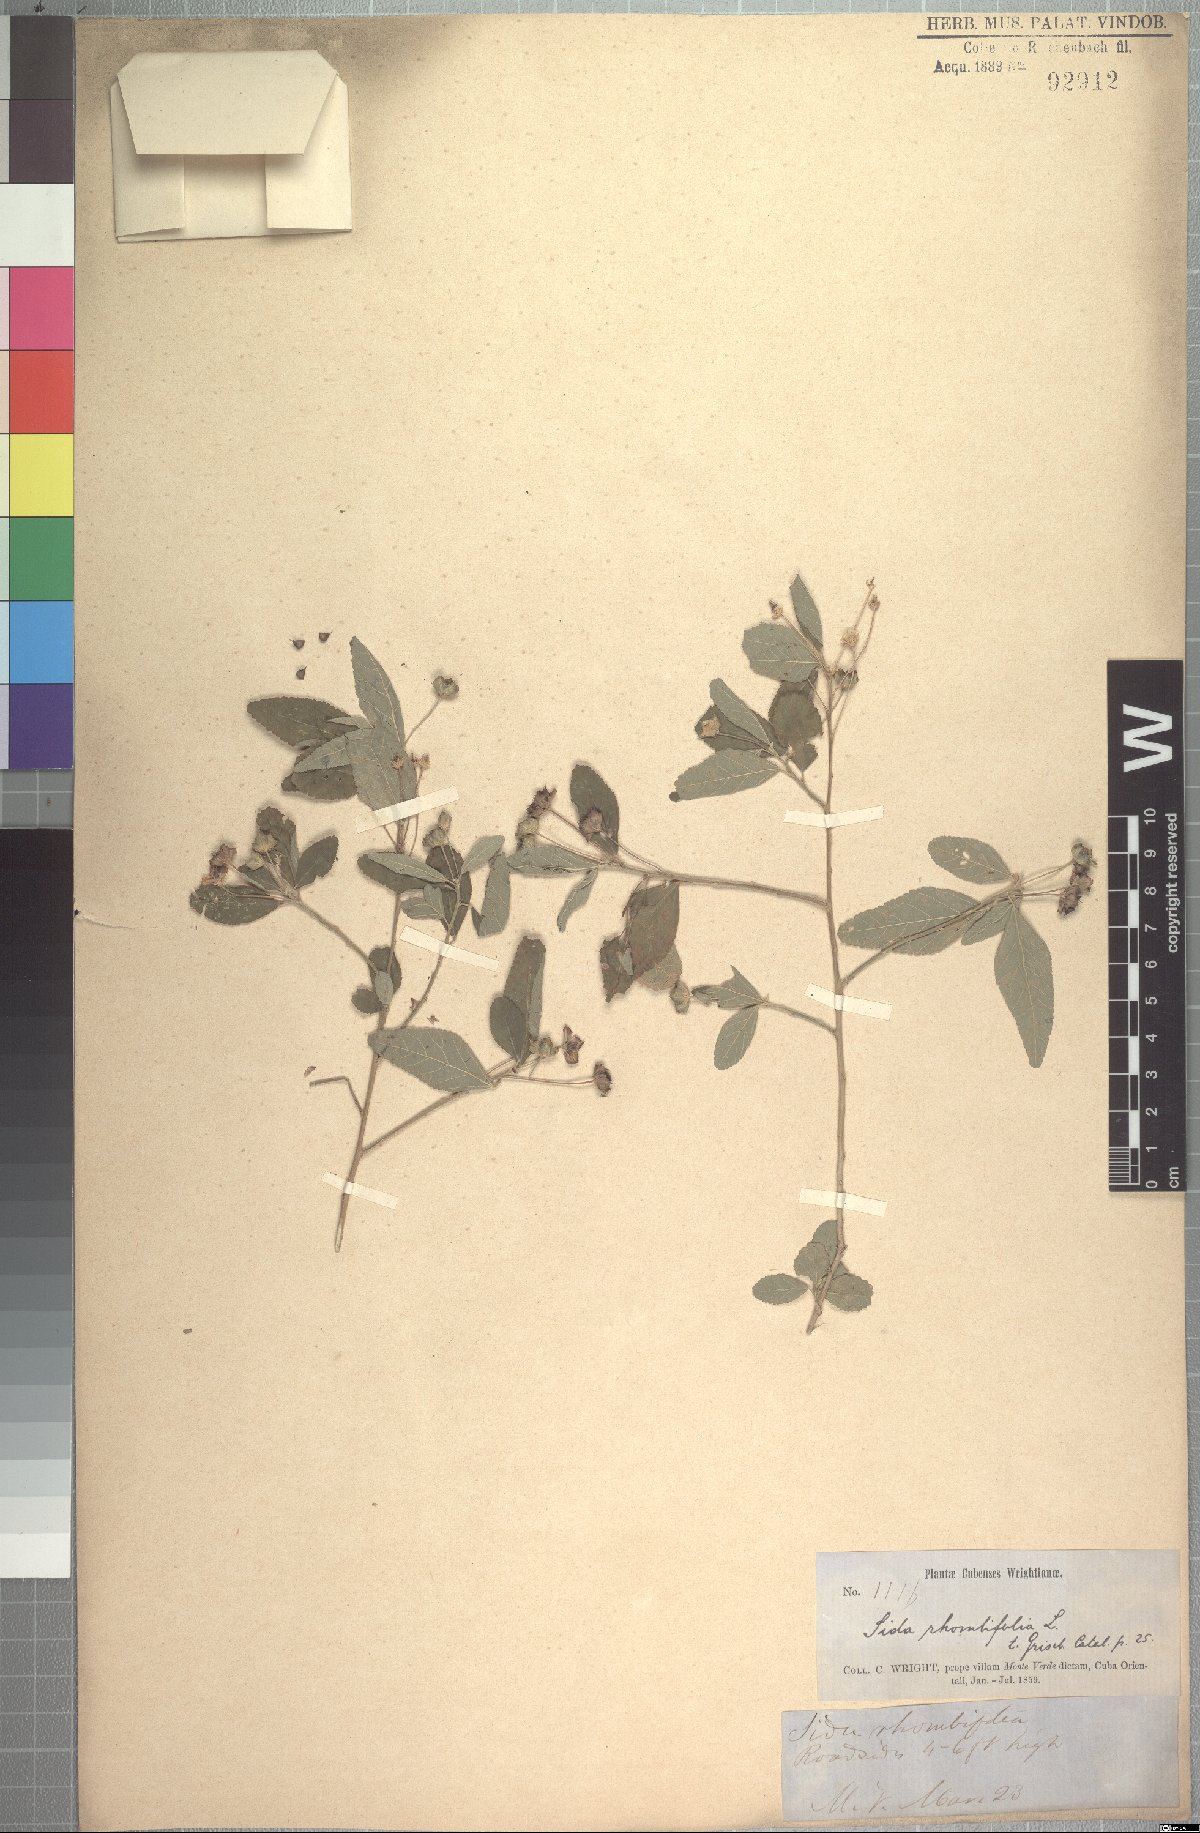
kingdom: Plantae
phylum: Tracheophyta
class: Magnoliopsida
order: Malvales
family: Malvaceae
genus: Sida
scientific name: Sida rhombifolia
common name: Queensland-hemp
